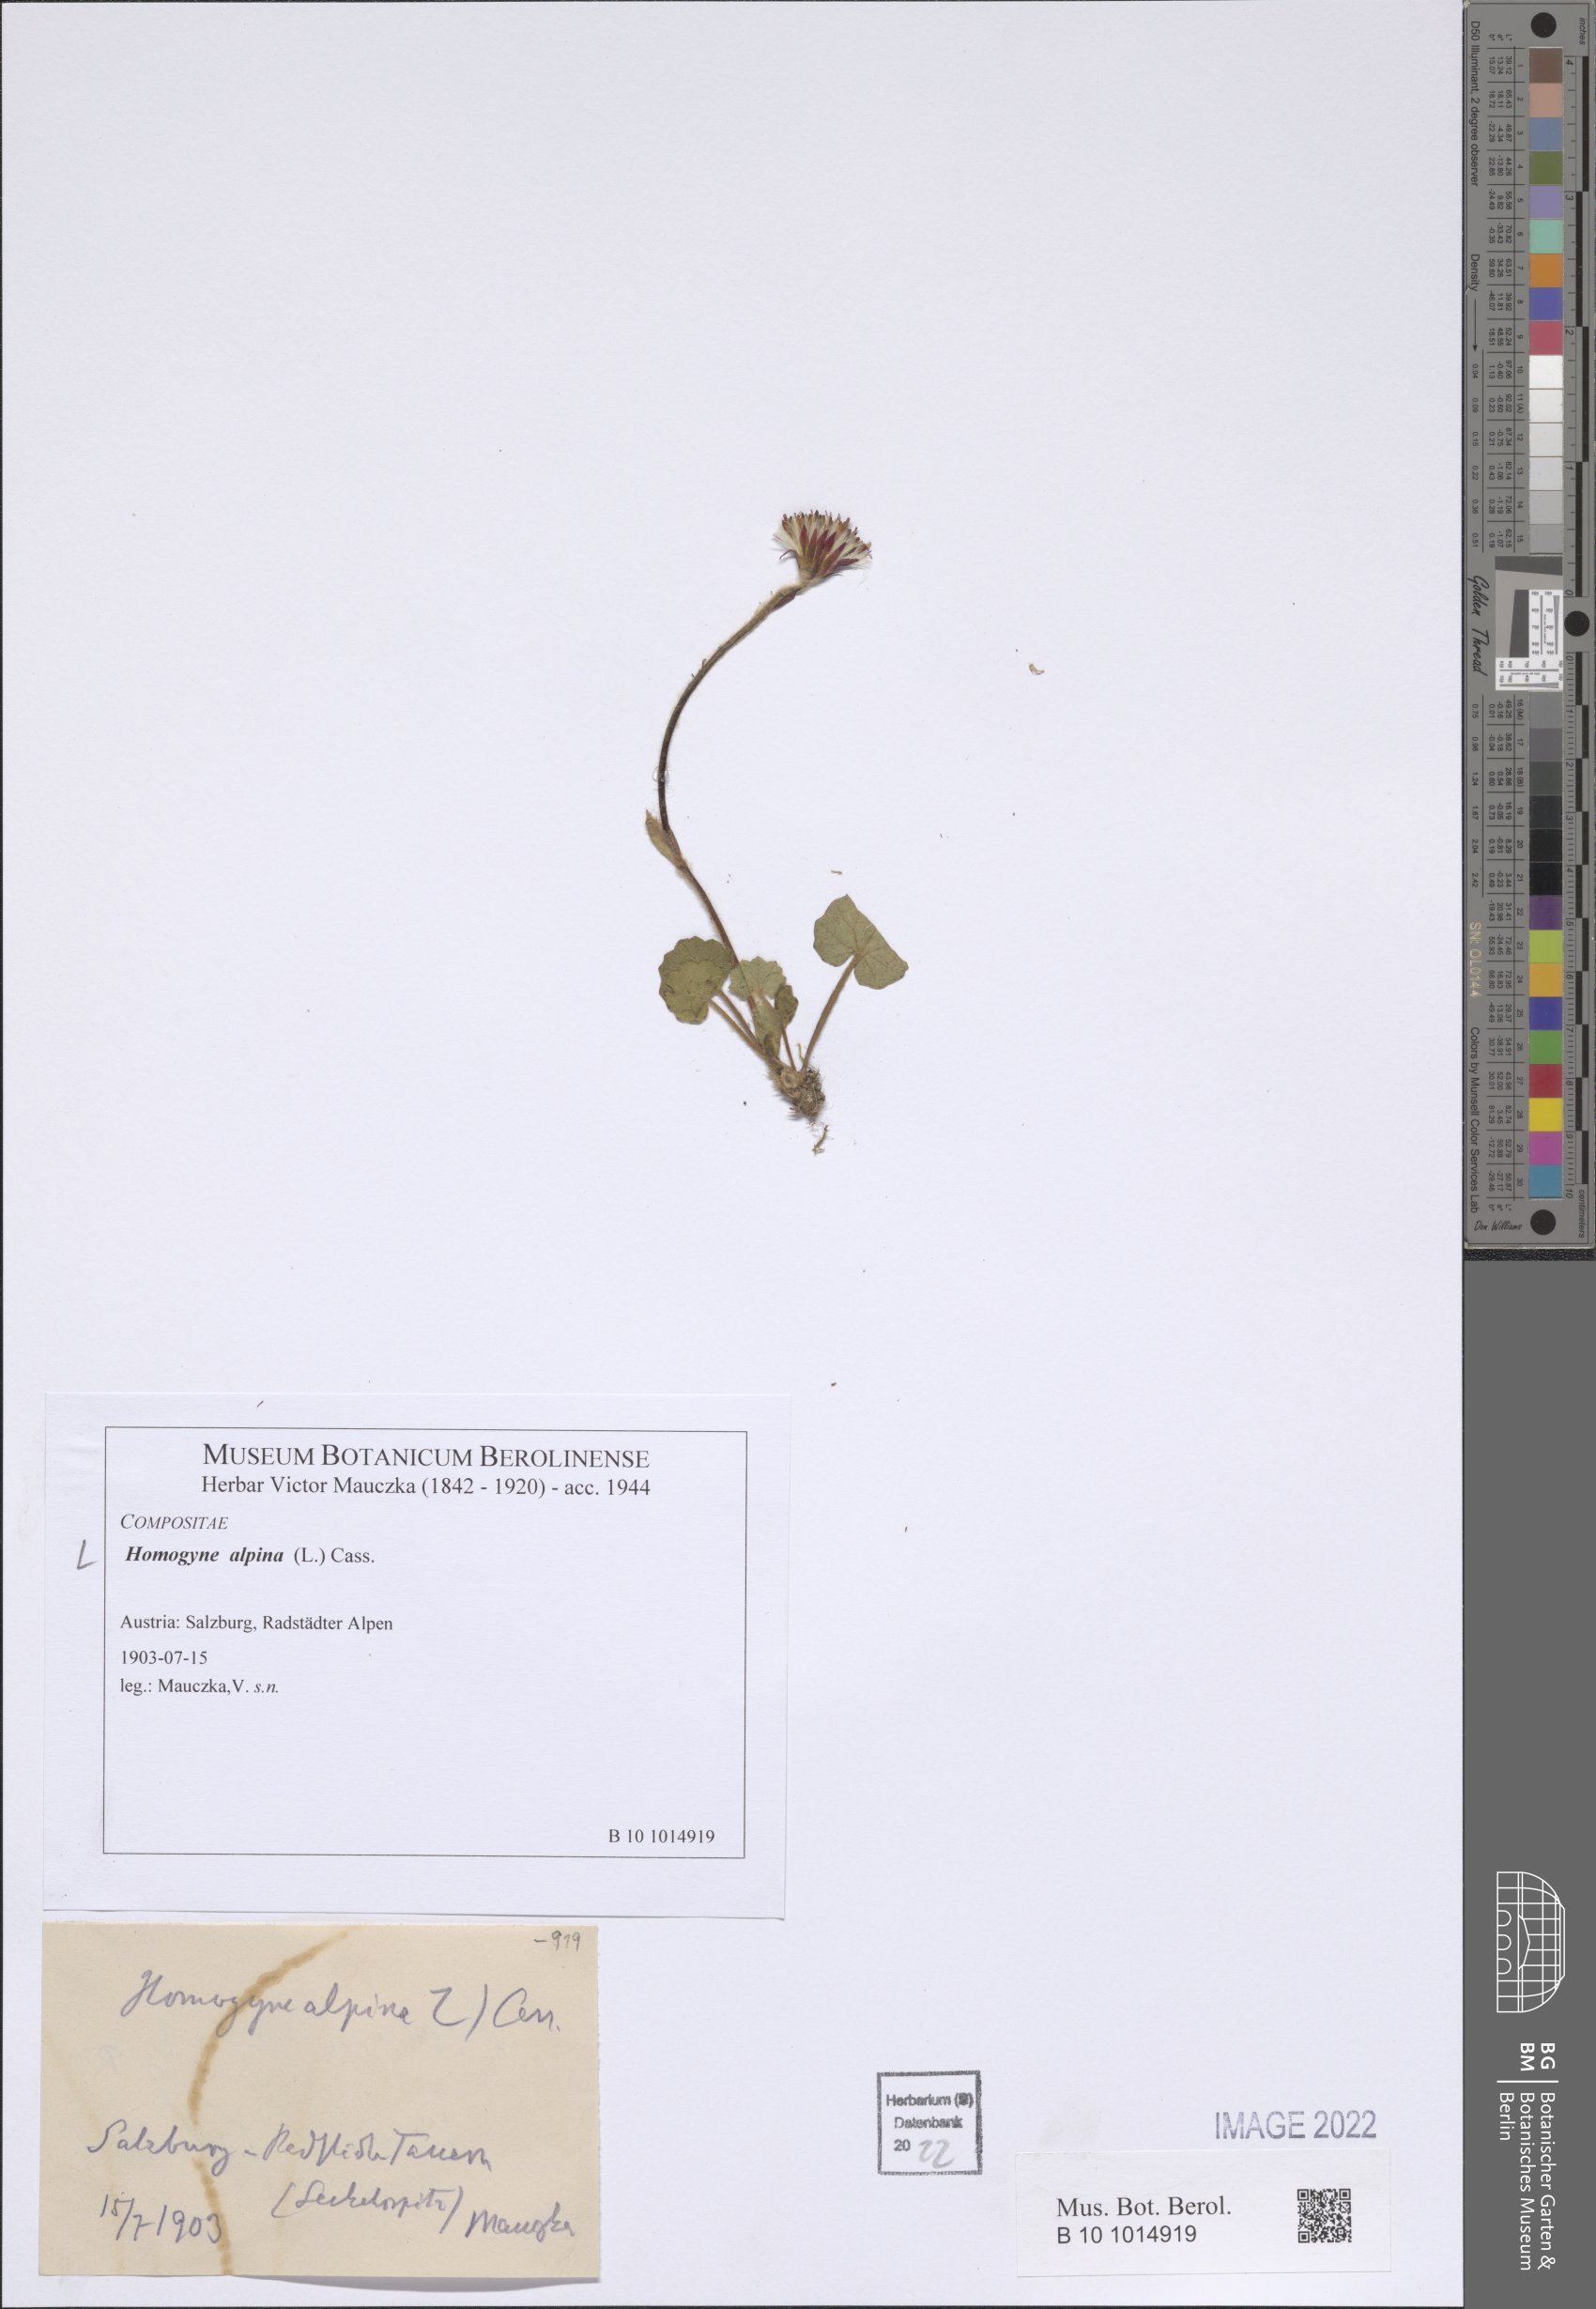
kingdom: Plantae
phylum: Tracheophyta
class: Magnoliopsida
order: Asterales
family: Asteraceae
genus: Homogyne
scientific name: Homogyne alpina
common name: Purple colt's-foot
